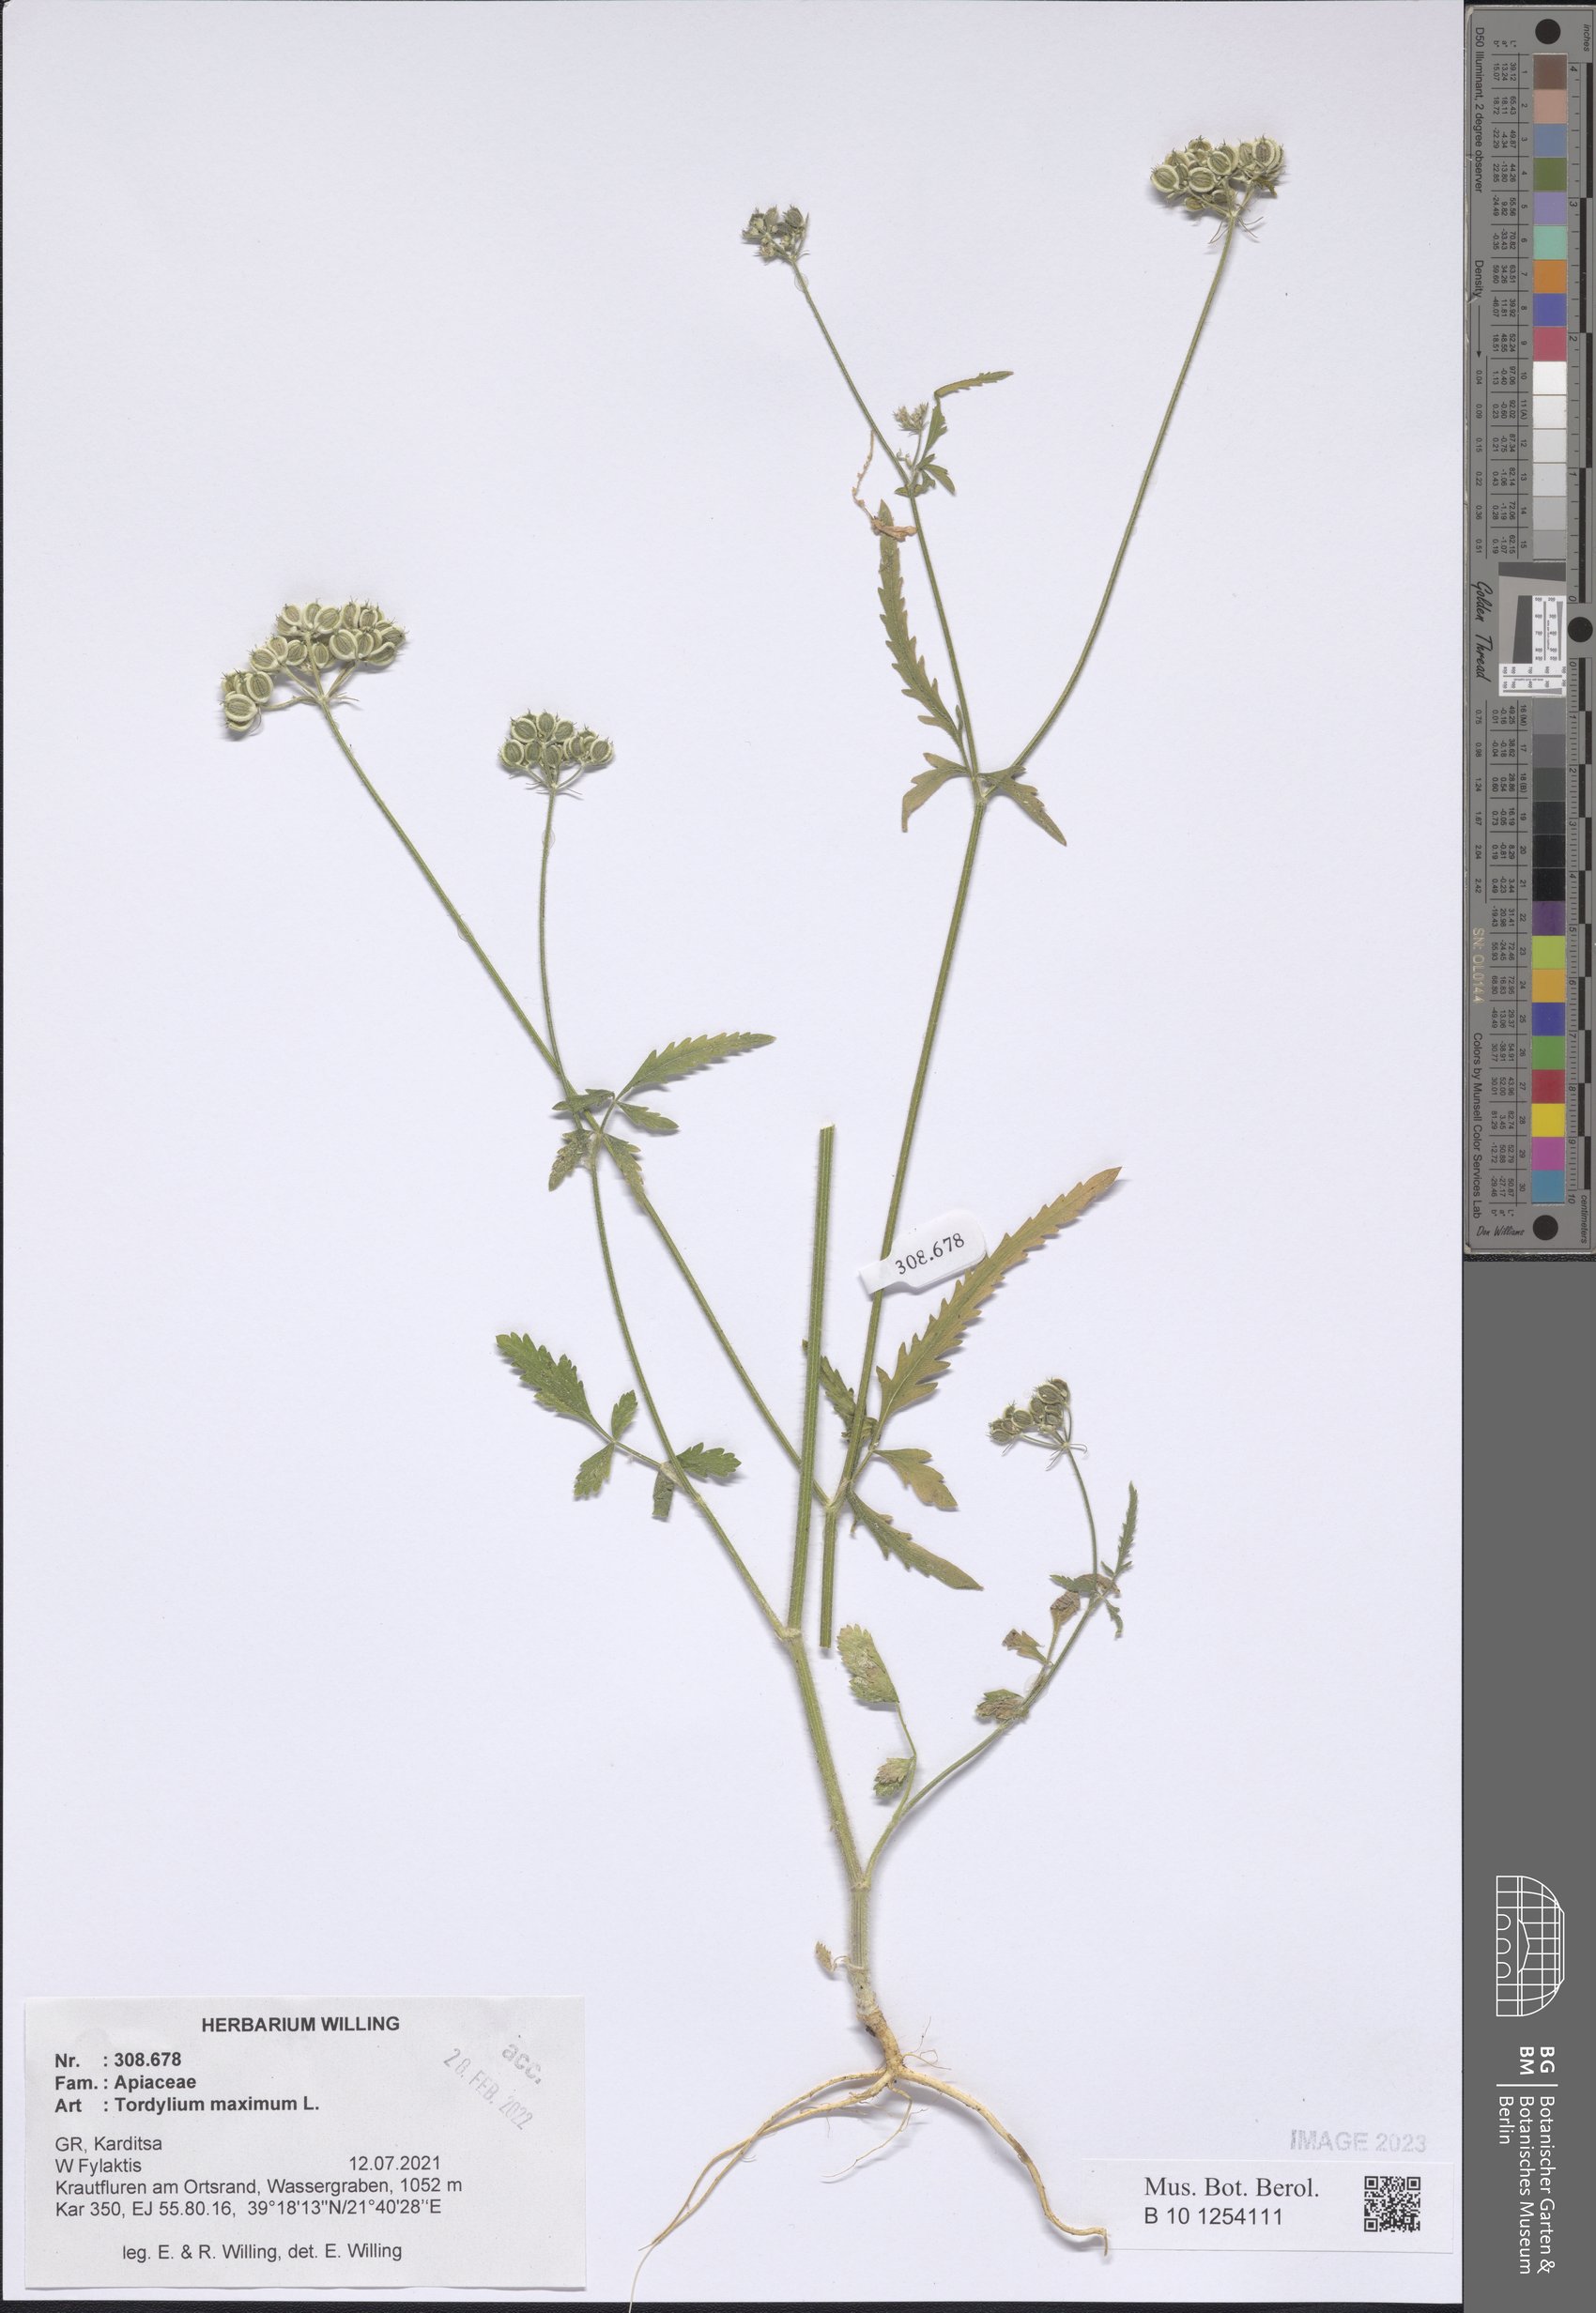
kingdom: Plantae
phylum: Tracheophyta
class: Magnoliopsida
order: Apiales
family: Apiaceae
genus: Tordylium
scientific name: Tordylium maximum
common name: Hartwort
